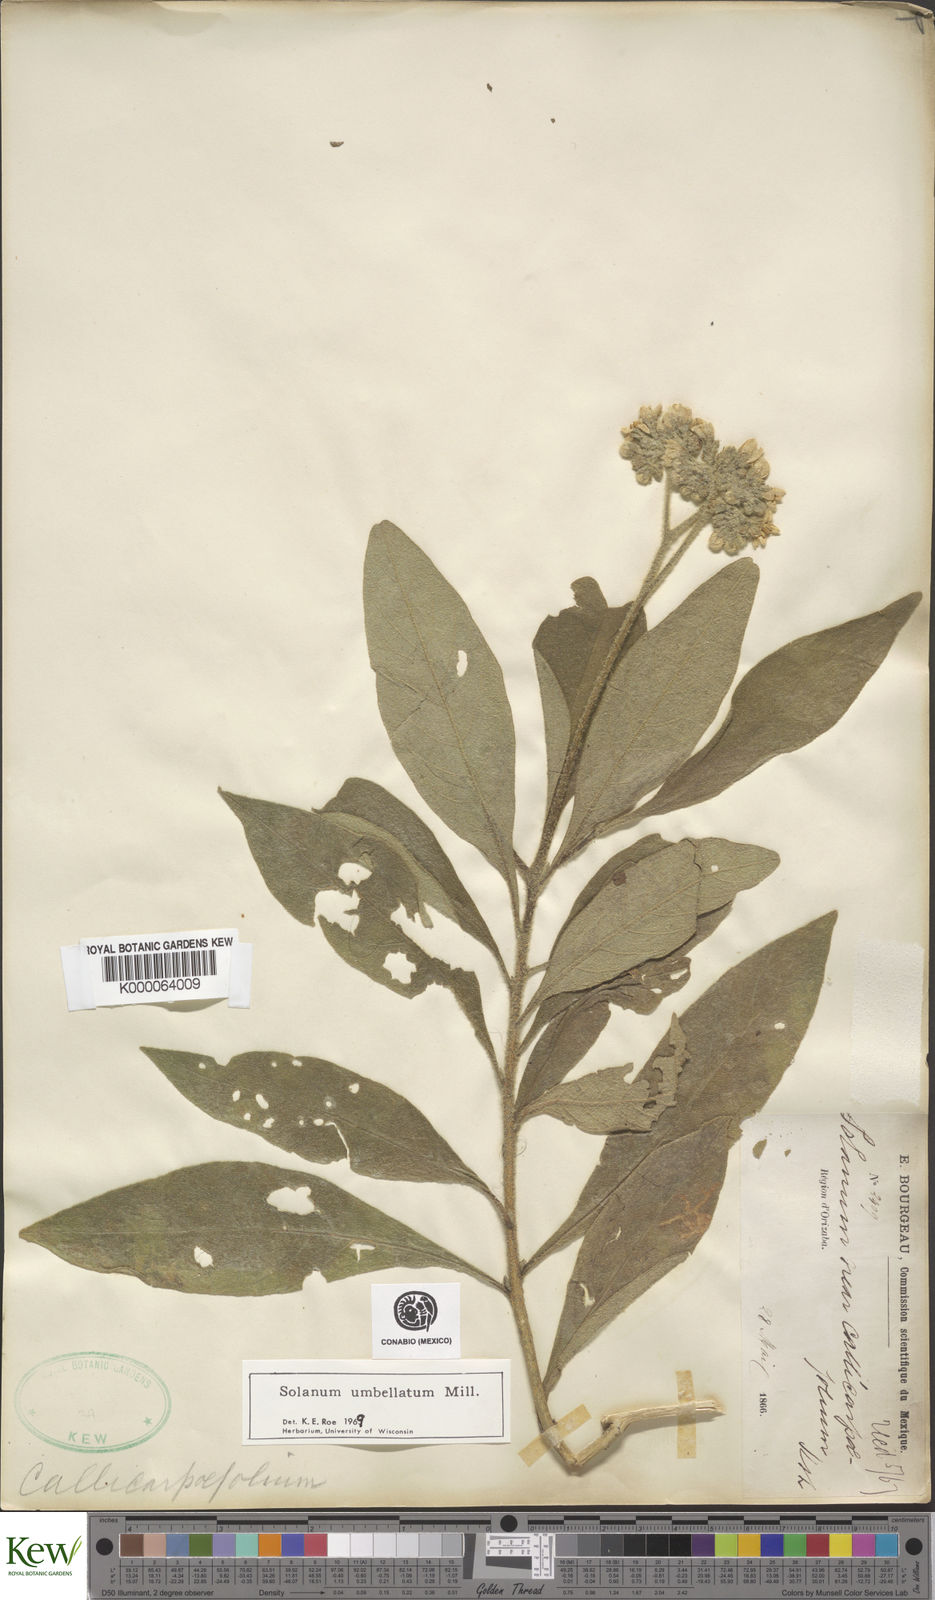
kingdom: Plantae
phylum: Tracheophyta
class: Magnoliopsida
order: Solanales
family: Solanaceae
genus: Solanum
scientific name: Solanum umbellatum
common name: Nightshade
